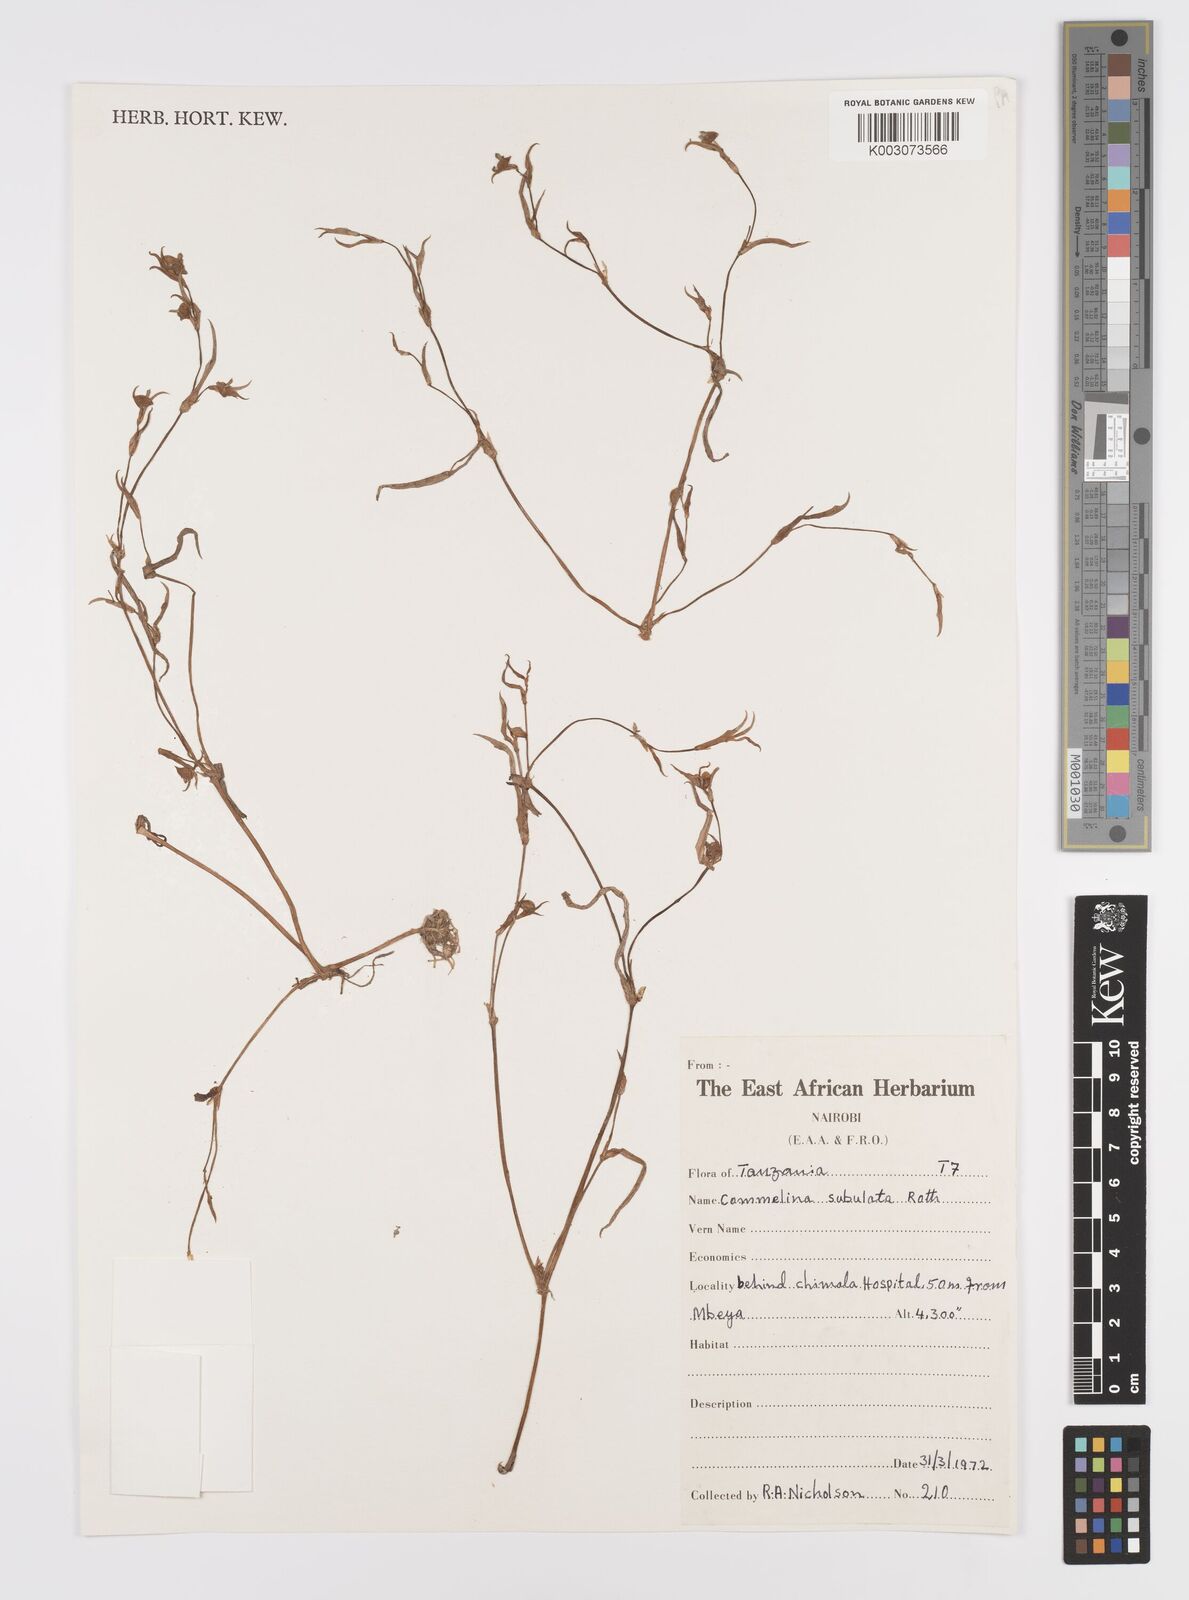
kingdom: Plantae
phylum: Tracheophyta
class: Liliopsida
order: Commelinales
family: Commelinaceae
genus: Commelina
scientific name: Commelina subulata
